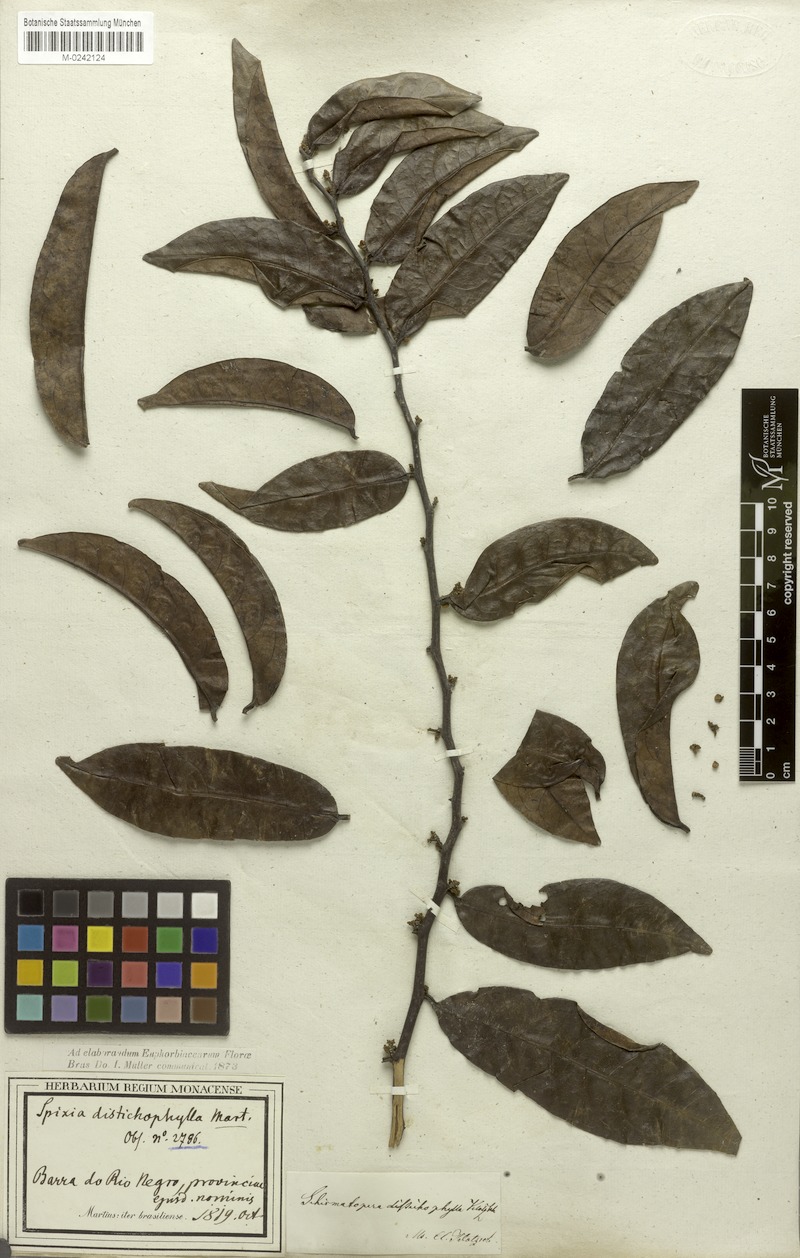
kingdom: Plantae
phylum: Tracheophyta
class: Magnoliopsida
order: Malpighiales
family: Peraceae
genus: Pera
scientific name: Pera distichophylla
